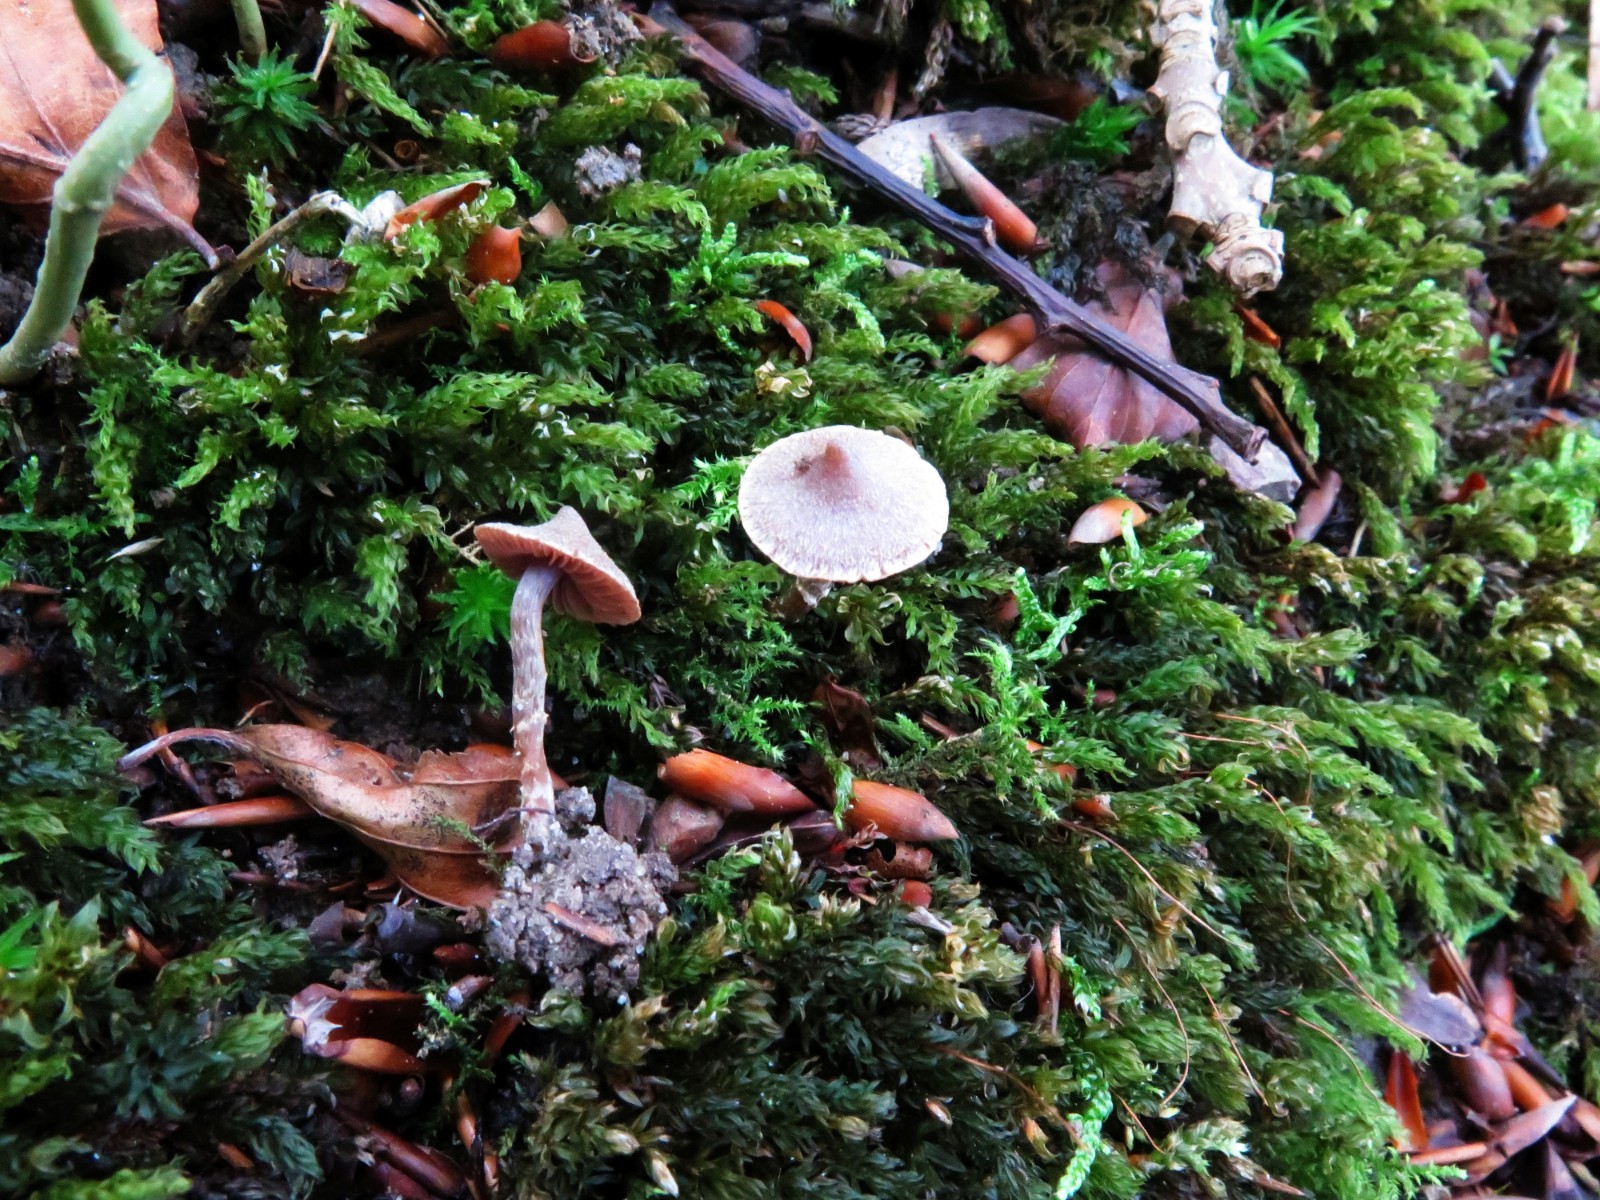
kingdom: Fungi
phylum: Basidiomycota
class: Agaricomycetes
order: Agaricales
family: Cortinariaceae
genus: Cortinarius
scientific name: Cortinarius
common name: pelargonie-slørhat
